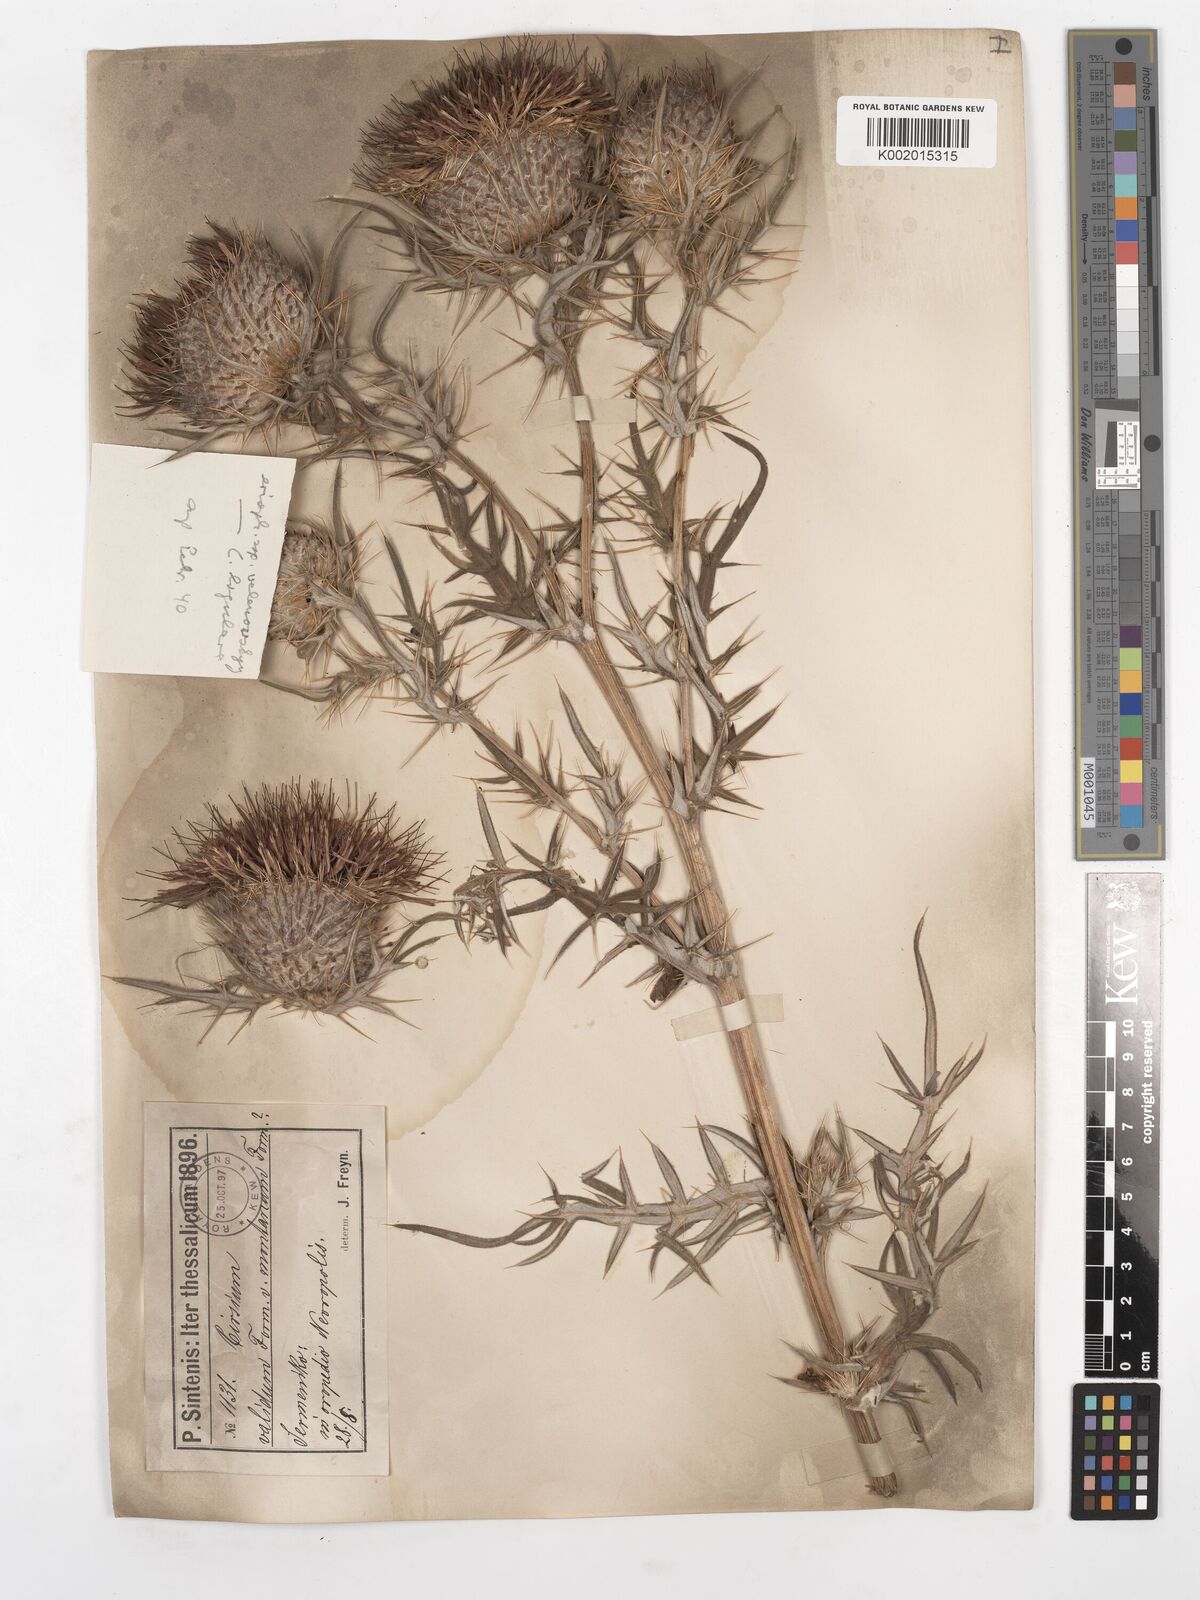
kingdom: Plantae
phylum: Tracheophyta
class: Magnoliopsida
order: Asterales
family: Asteraceae
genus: Lophiolepis
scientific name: Lophiolepis eriophora
